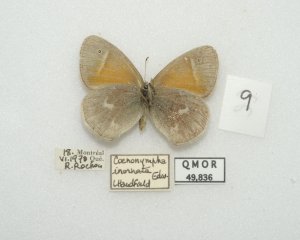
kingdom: Animalia
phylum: Arthropoda
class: Insecta
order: Lepidoptera
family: Nymphalidae
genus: Coenonympha
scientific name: Coenonympha tullia
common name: Large Heath
